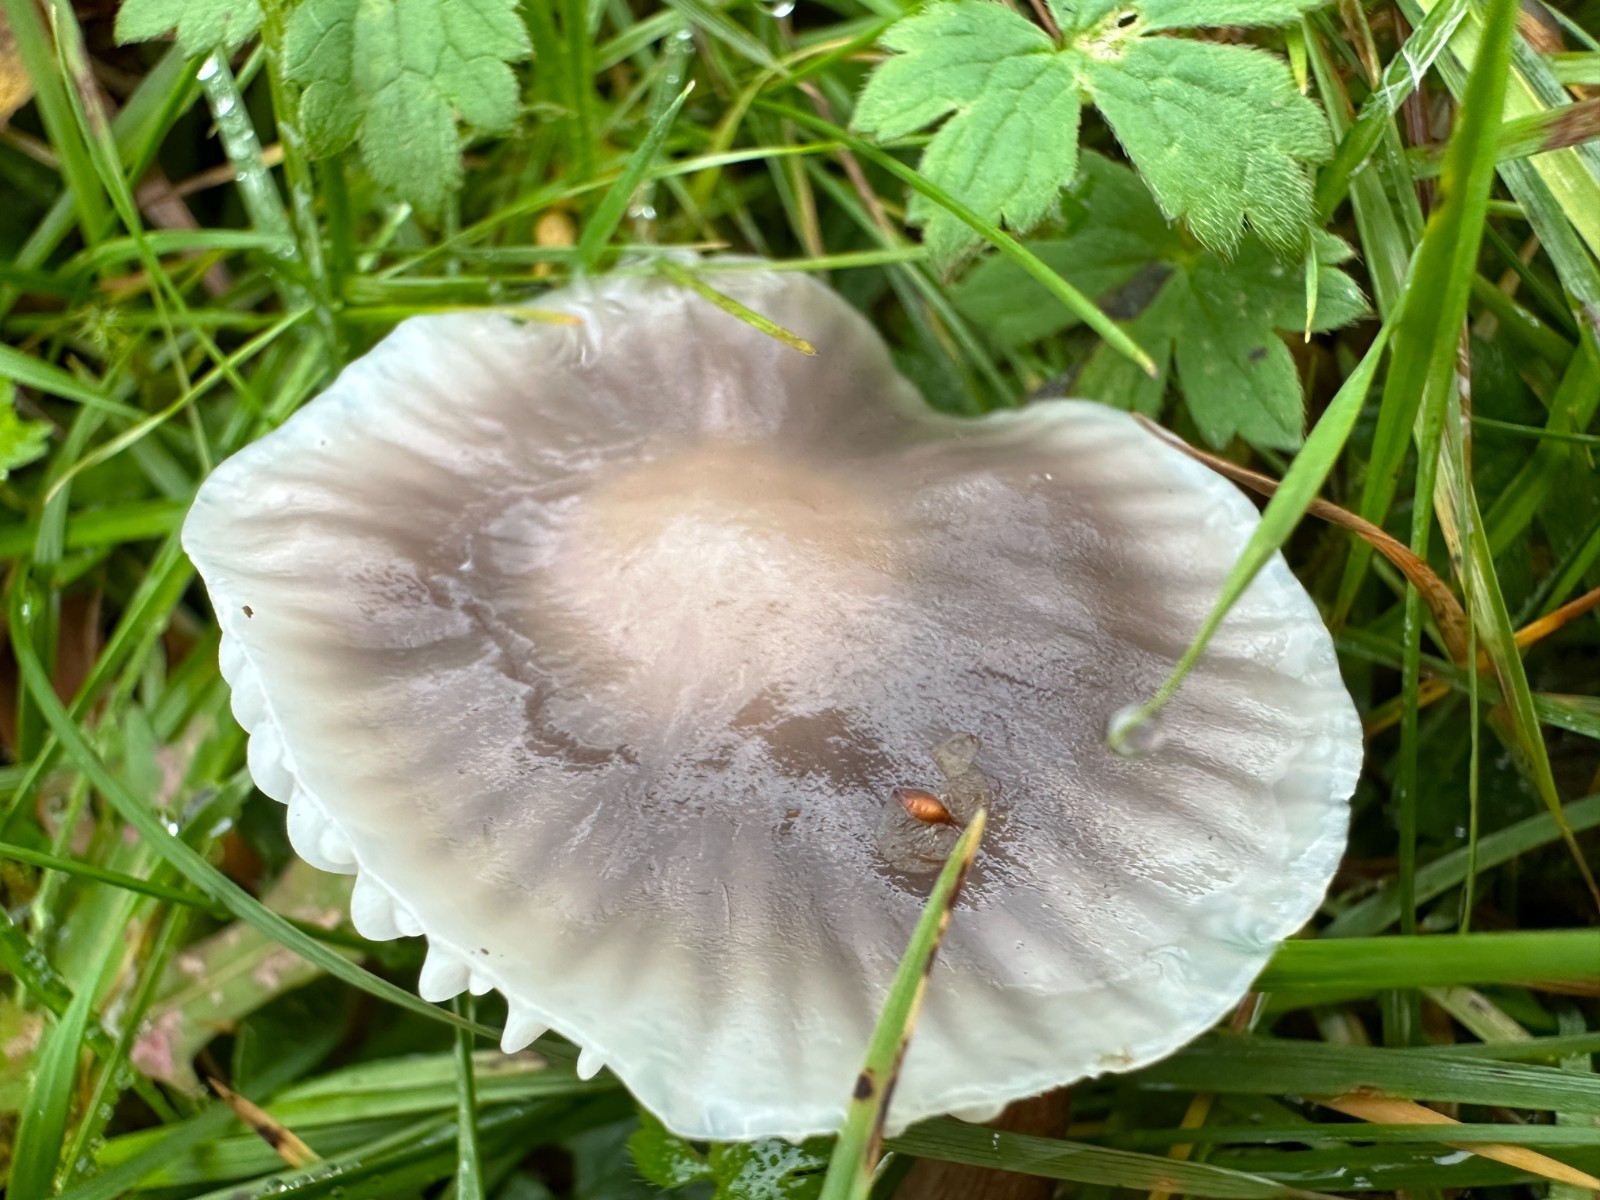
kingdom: Fungi
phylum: Basidiomycota
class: Agaricomycetes
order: Agaricales
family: Hygrophoraceae
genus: Cuphophyllus
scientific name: Cuphophyllus flavipes
